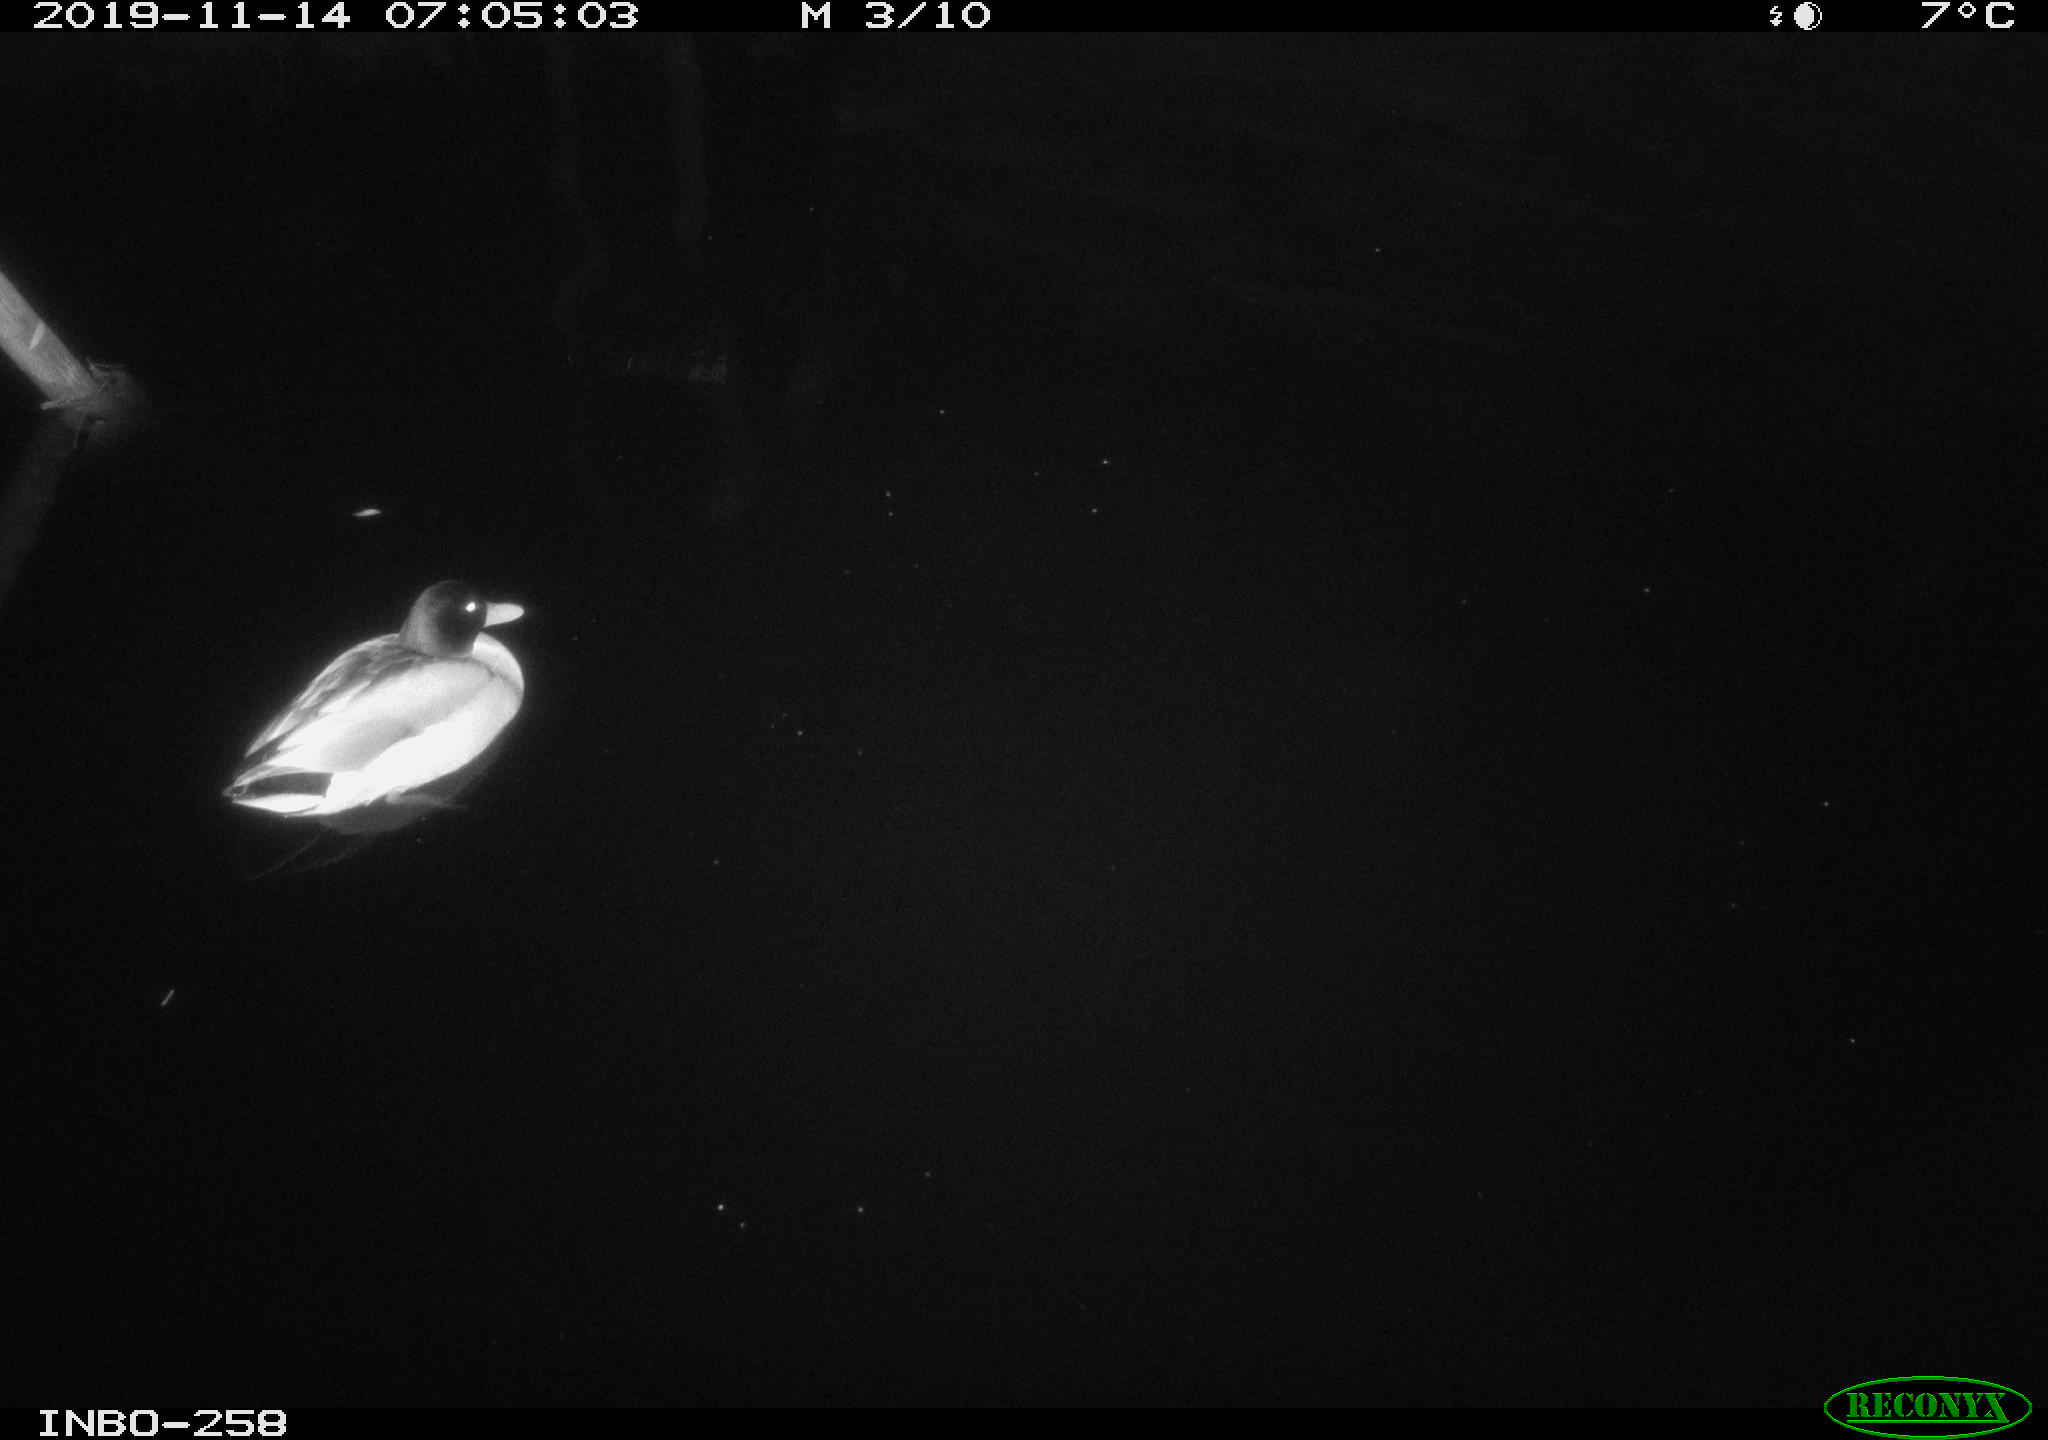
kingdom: Animalia
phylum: Chordata
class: Aves
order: Anseriformes
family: Anatidae
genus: Anas
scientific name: Anas platyrhynchos
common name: Mallard
